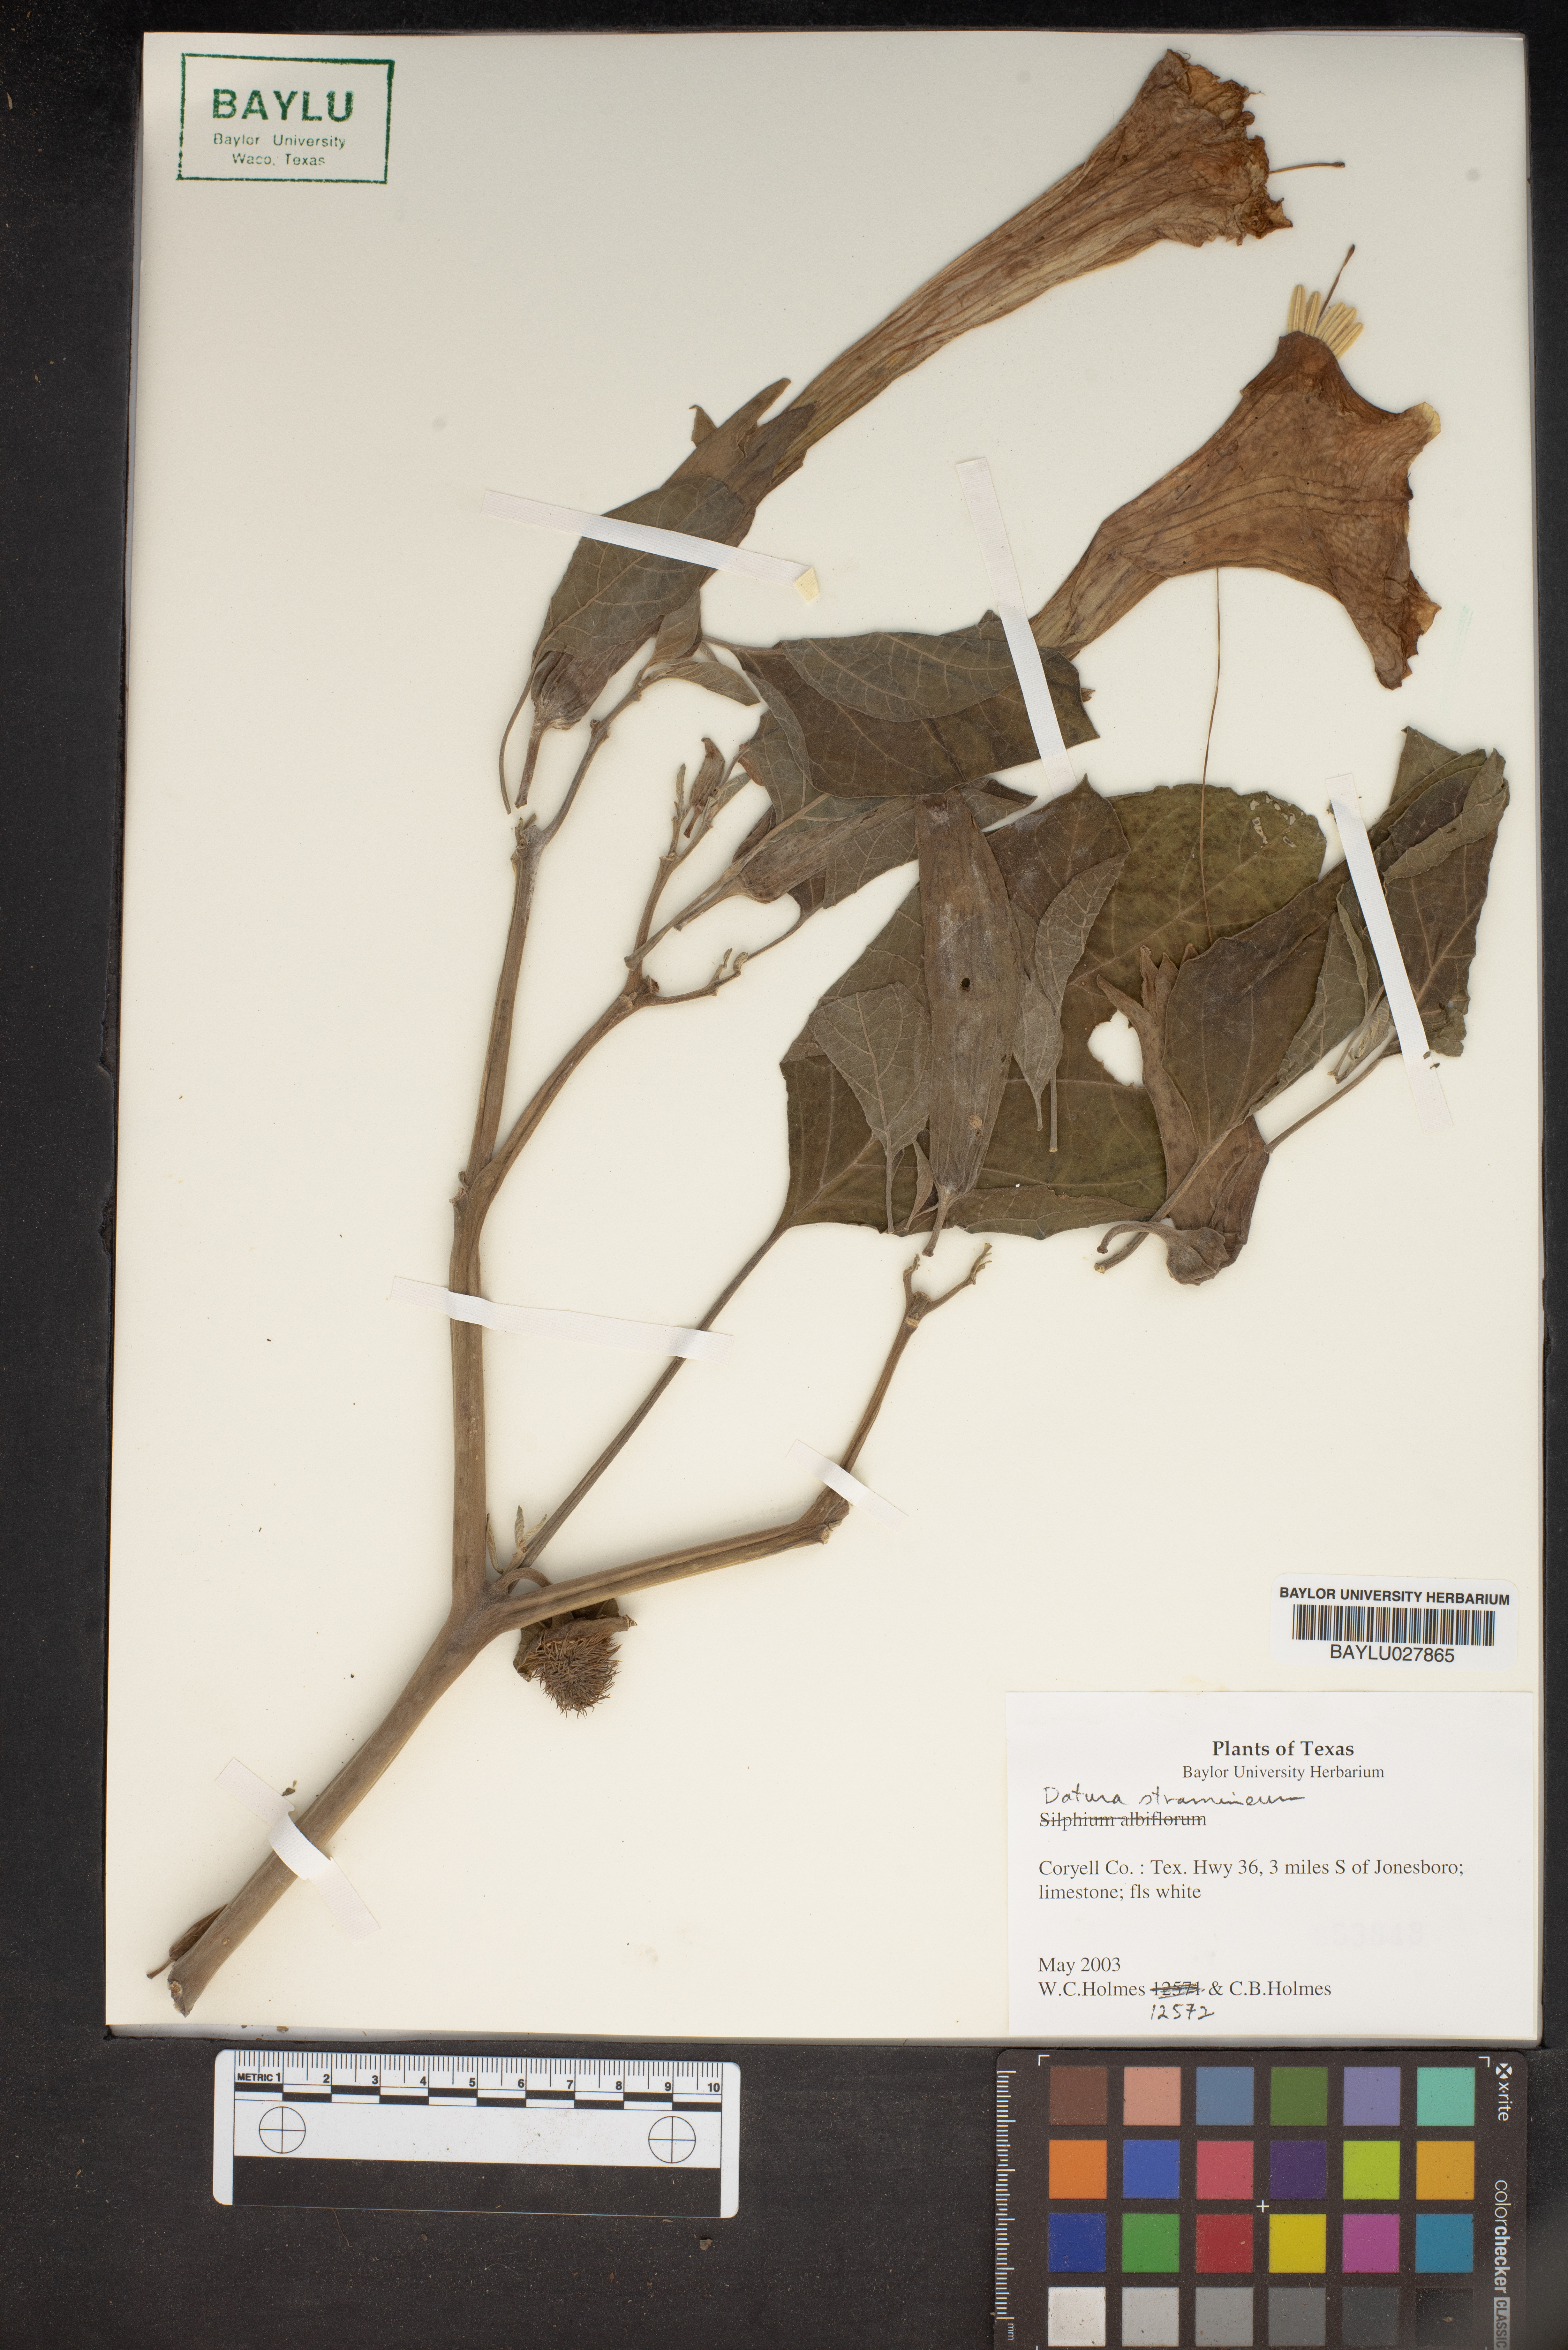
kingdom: Plantae
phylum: Tracheophyta
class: Magnoliopsida
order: Solanales
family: Solanaceae
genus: Datura
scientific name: Datura stramonium
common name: Thorn-apple
